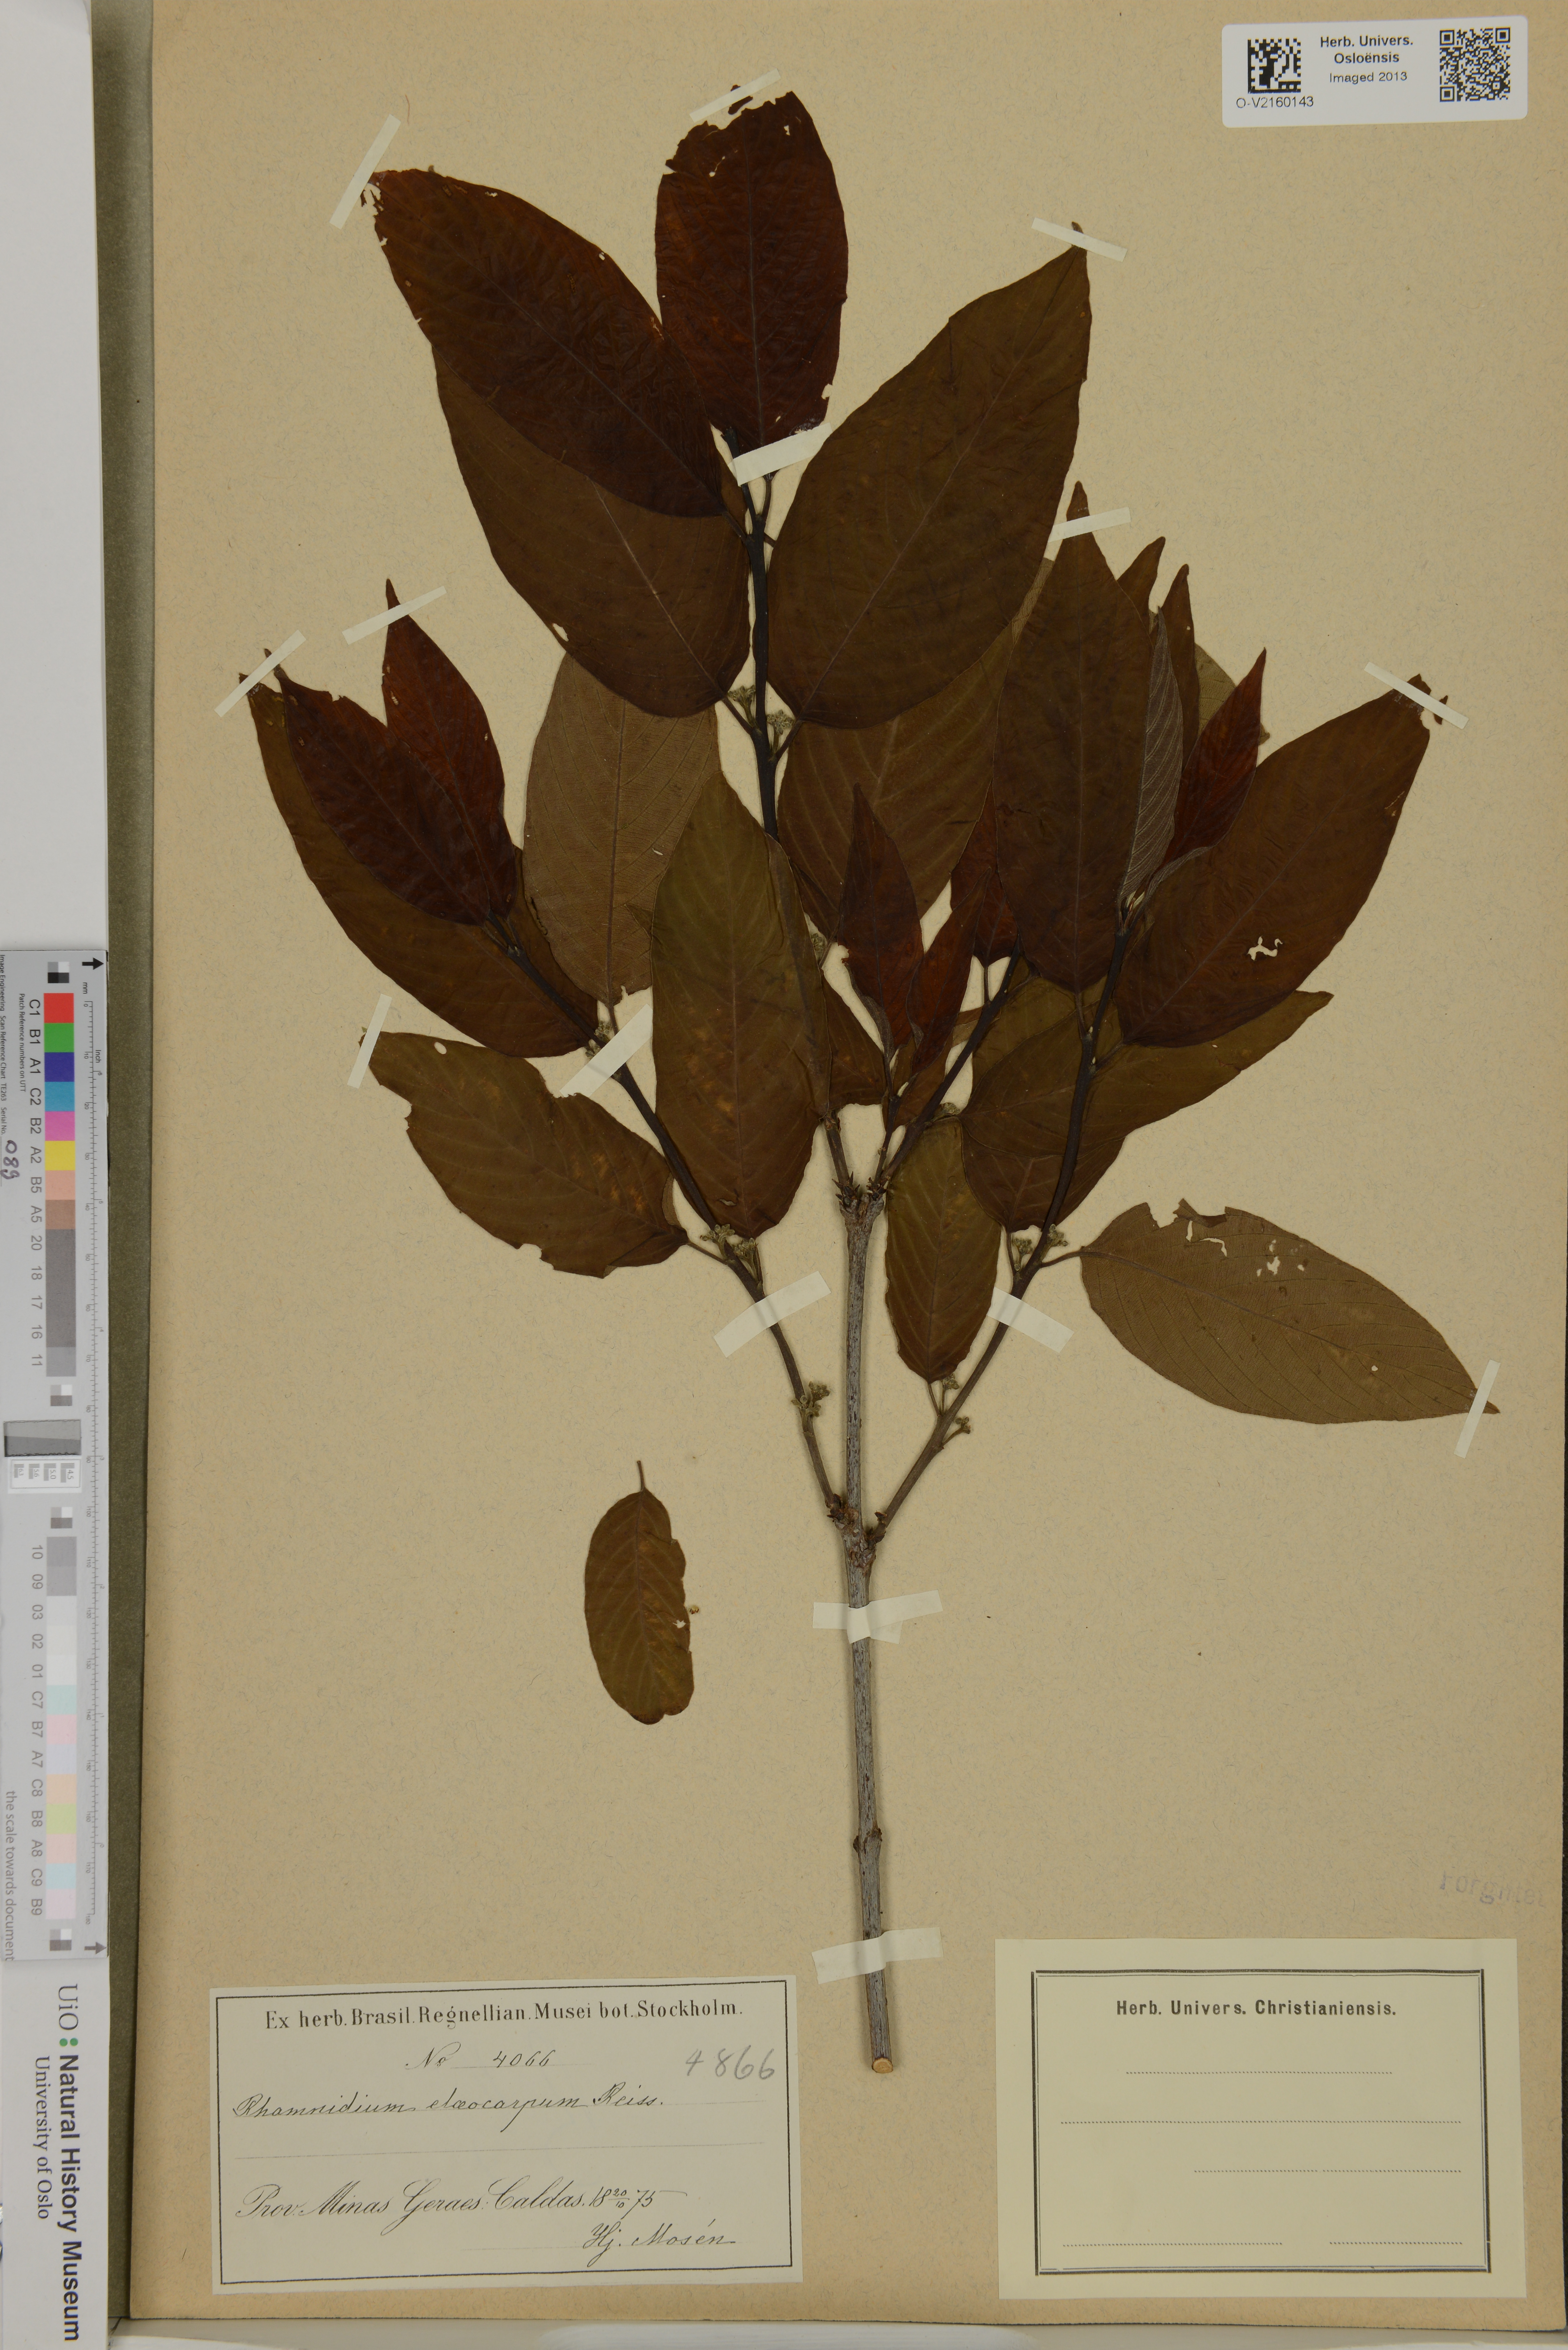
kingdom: Plantae
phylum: Tracheophyta
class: Magnoliopsida
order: Rosales
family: Rhamnaceae
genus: Rhamnidium
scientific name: Rhamnidium elaeocarpum
